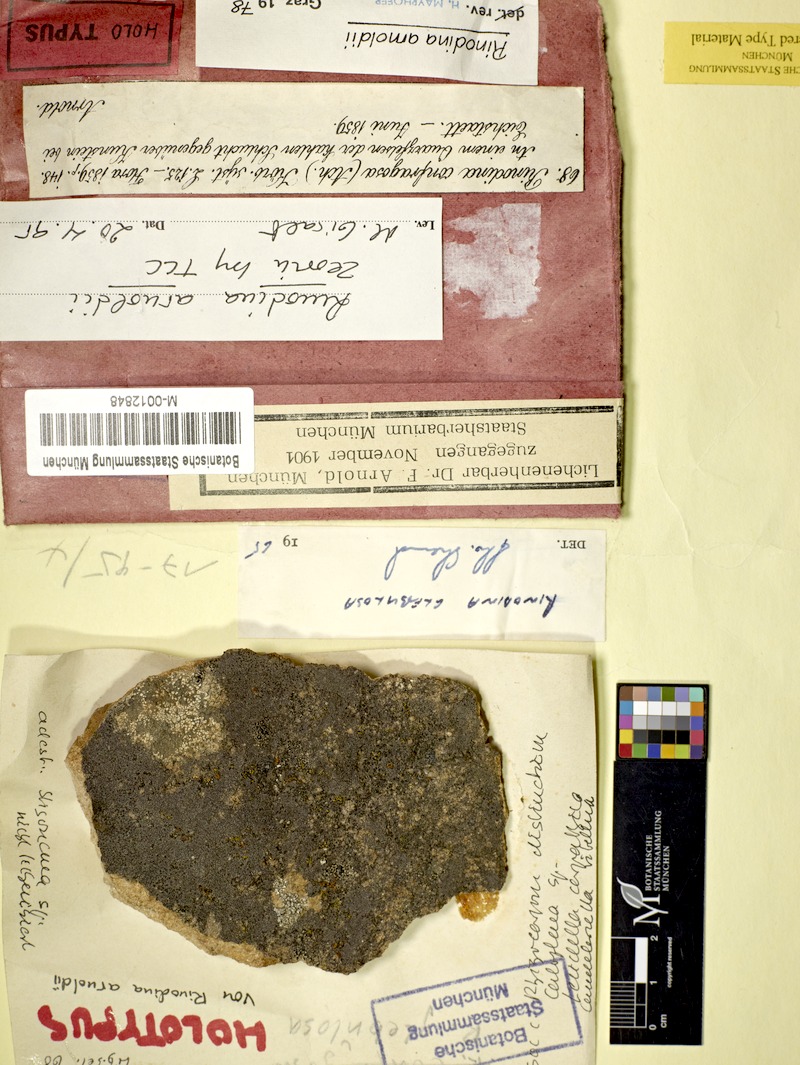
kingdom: Fungi
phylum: Ascomycota
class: Lecanoromycetes
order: Caliciales
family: Physciaceae
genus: Rinodina
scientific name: Rinodina arnoldii
